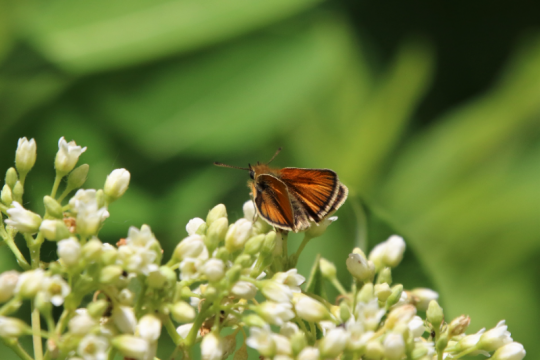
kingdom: Animalia
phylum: Arthropoda
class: Insecta
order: Lepidoptera
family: Hesperiidae
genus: Thymelicus
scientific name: Thymelicus lineola
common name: European Skipper
